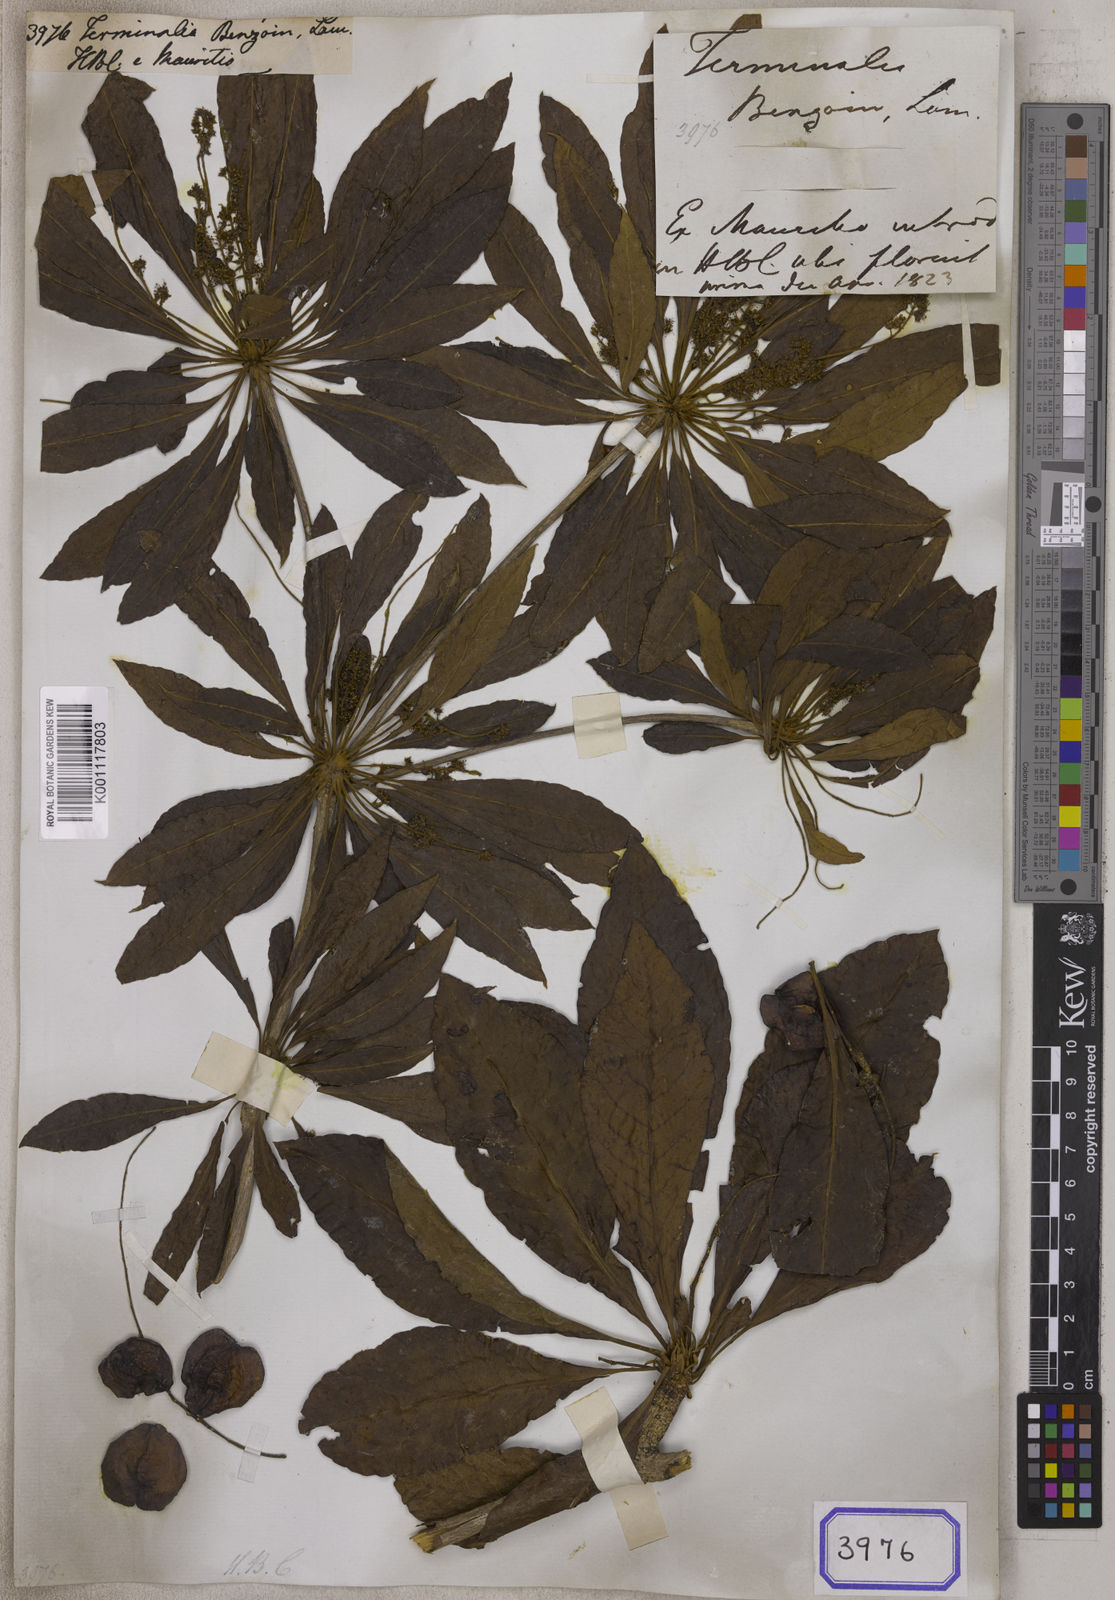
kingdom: Plantae
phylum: Tracheophyta
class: Magnoliopsida
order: Myrtales
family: Combretaceae
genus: Terminalia
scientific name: Terminalia
